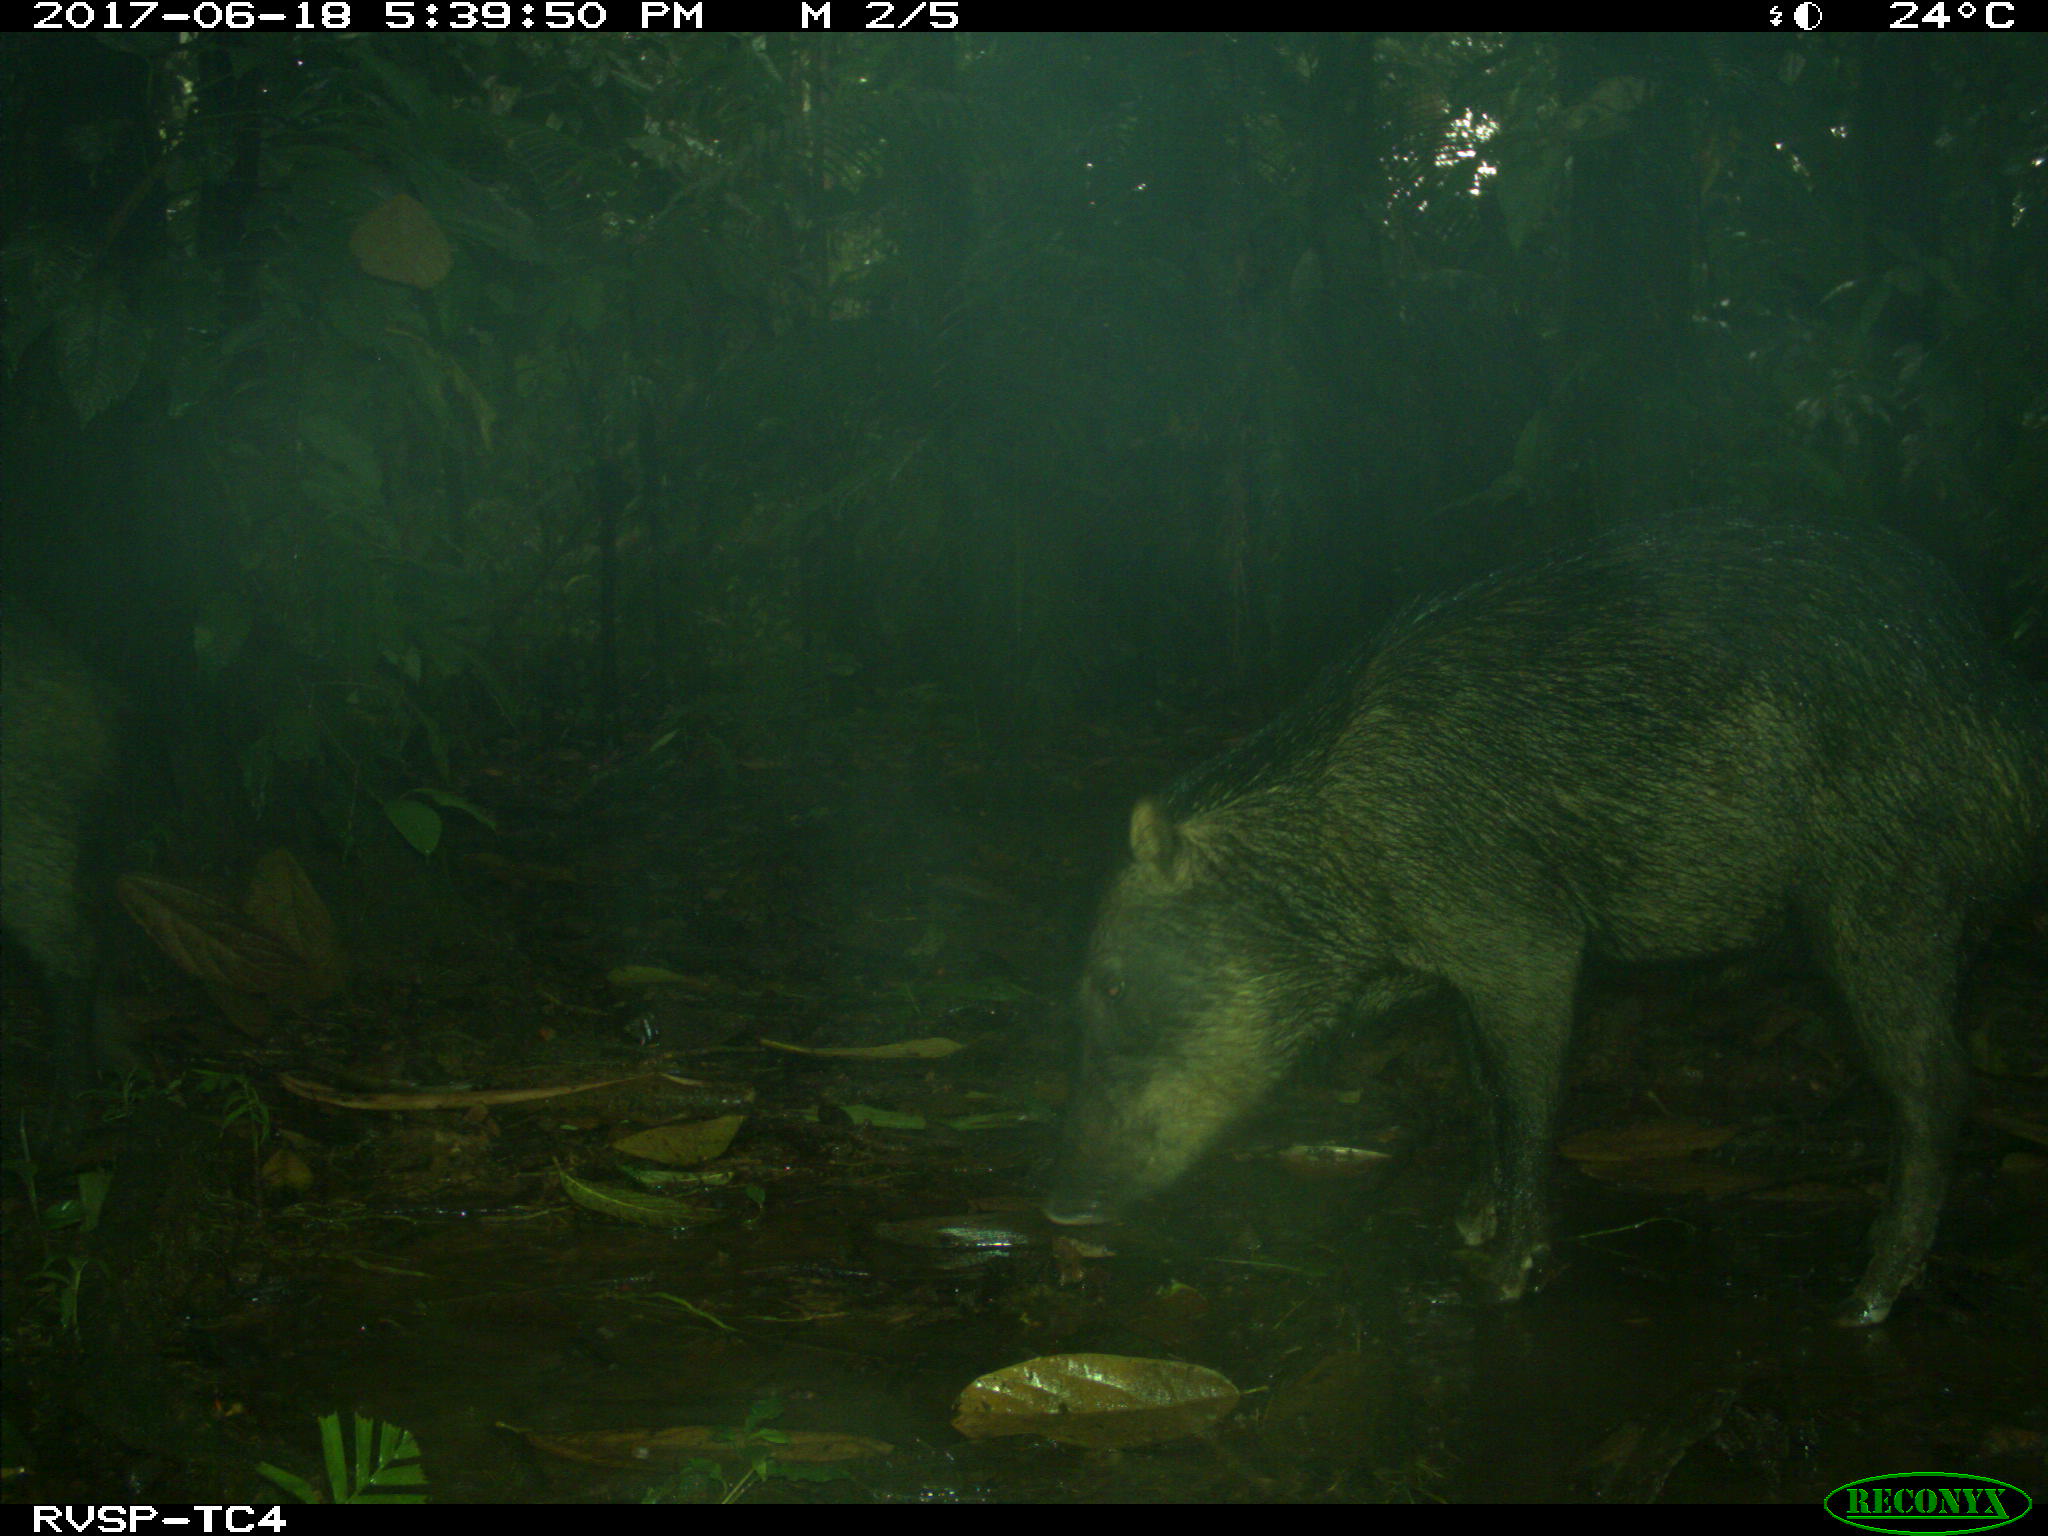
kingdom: Animalia
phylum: Chordata
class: Mammalia
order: Artiodactyla
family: Tayassuidae
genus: Tayassu
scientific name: Tayassu pecari
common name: White-lipped peccary
